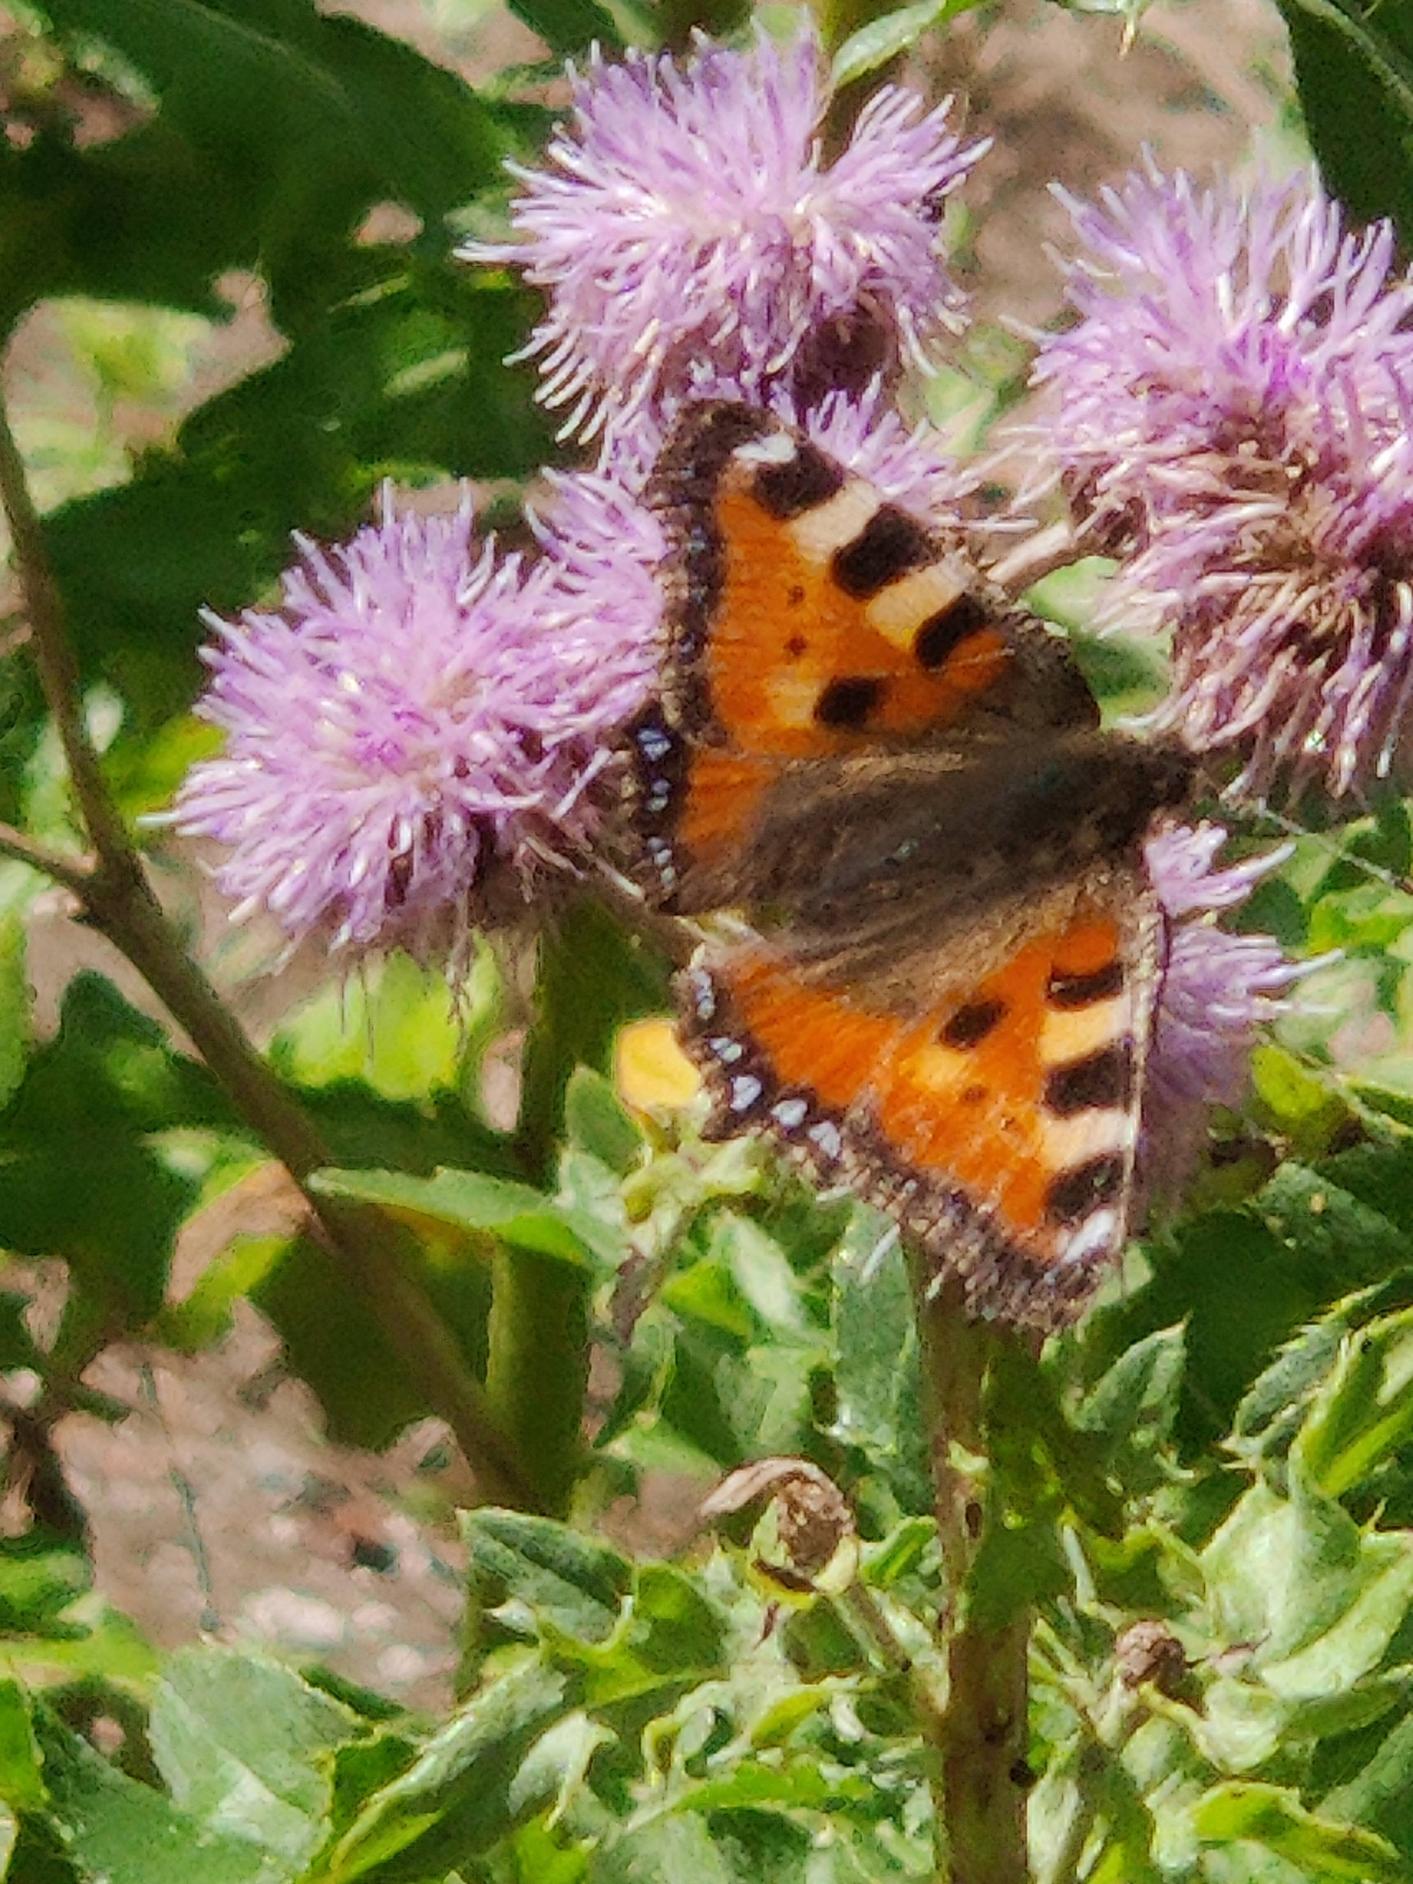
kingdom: Animalia
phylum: Arthropoda
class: Insecta
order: Lepidoptera
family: Nymphalidae
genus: Aglais
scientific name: Aglais urticae
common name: Nældens takvinge
